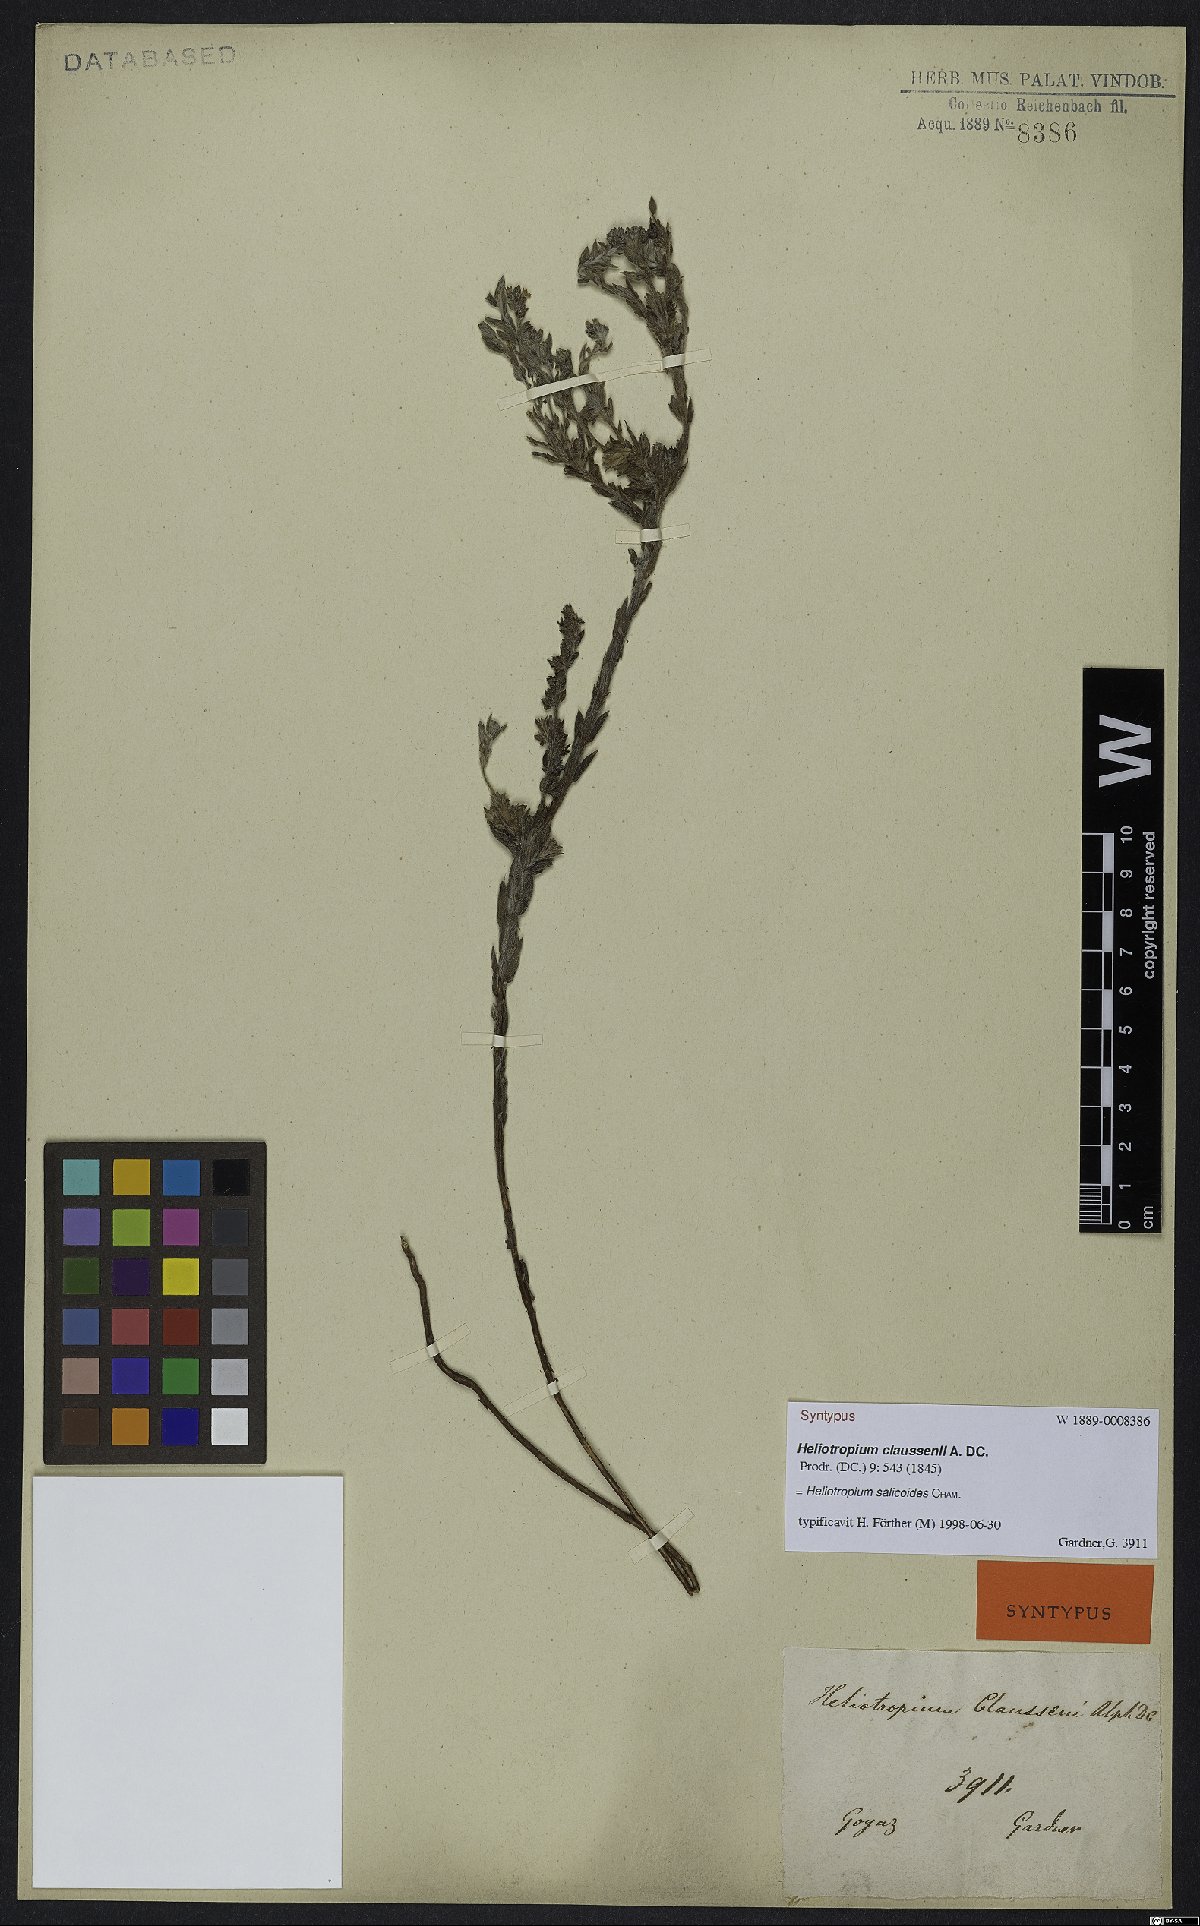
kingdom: Plantae
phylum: Tracheophyta
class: Magnoliopsida
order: Boraginales
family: Heliotropiaceae
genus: Euploca
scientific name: Euploca salicoides
